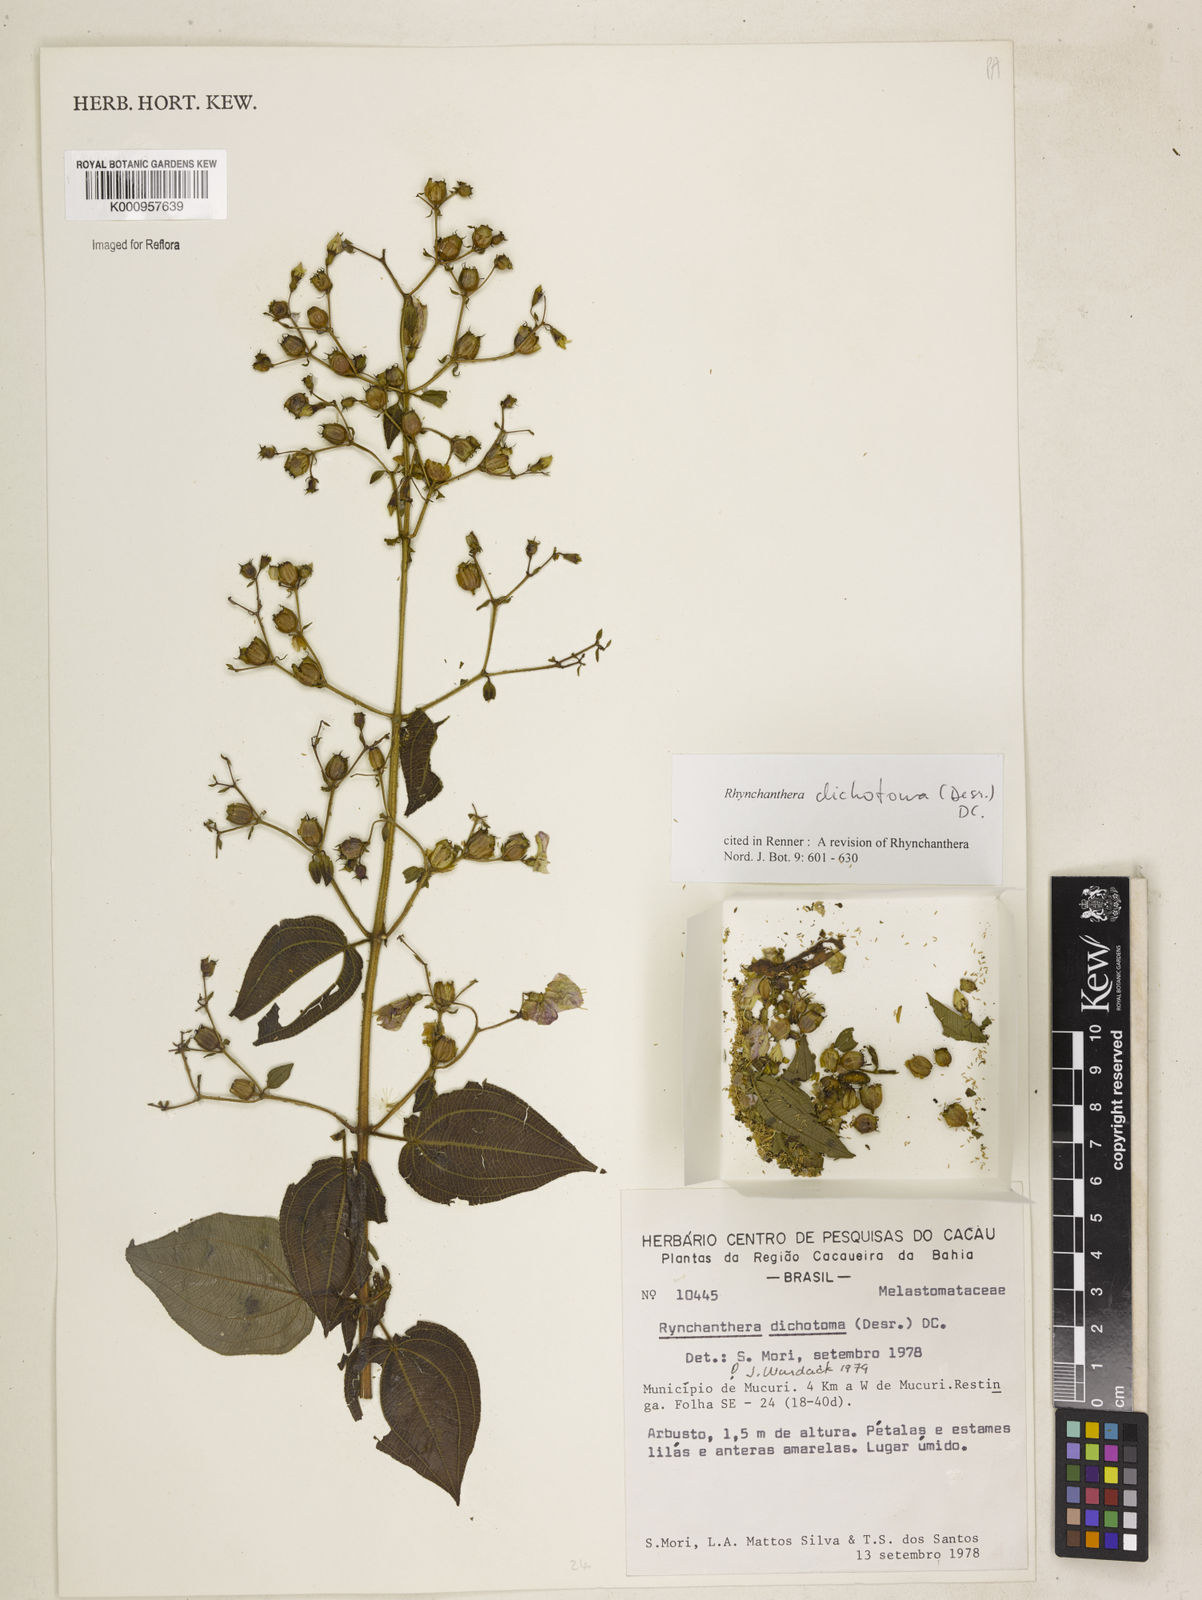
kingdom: Plantae
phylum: Tracheophyta
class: Magnoliopsida
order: Myrtales
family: Melastomataceae
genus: Rhynchanthera
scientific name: Rhynchanthera dichotoma
